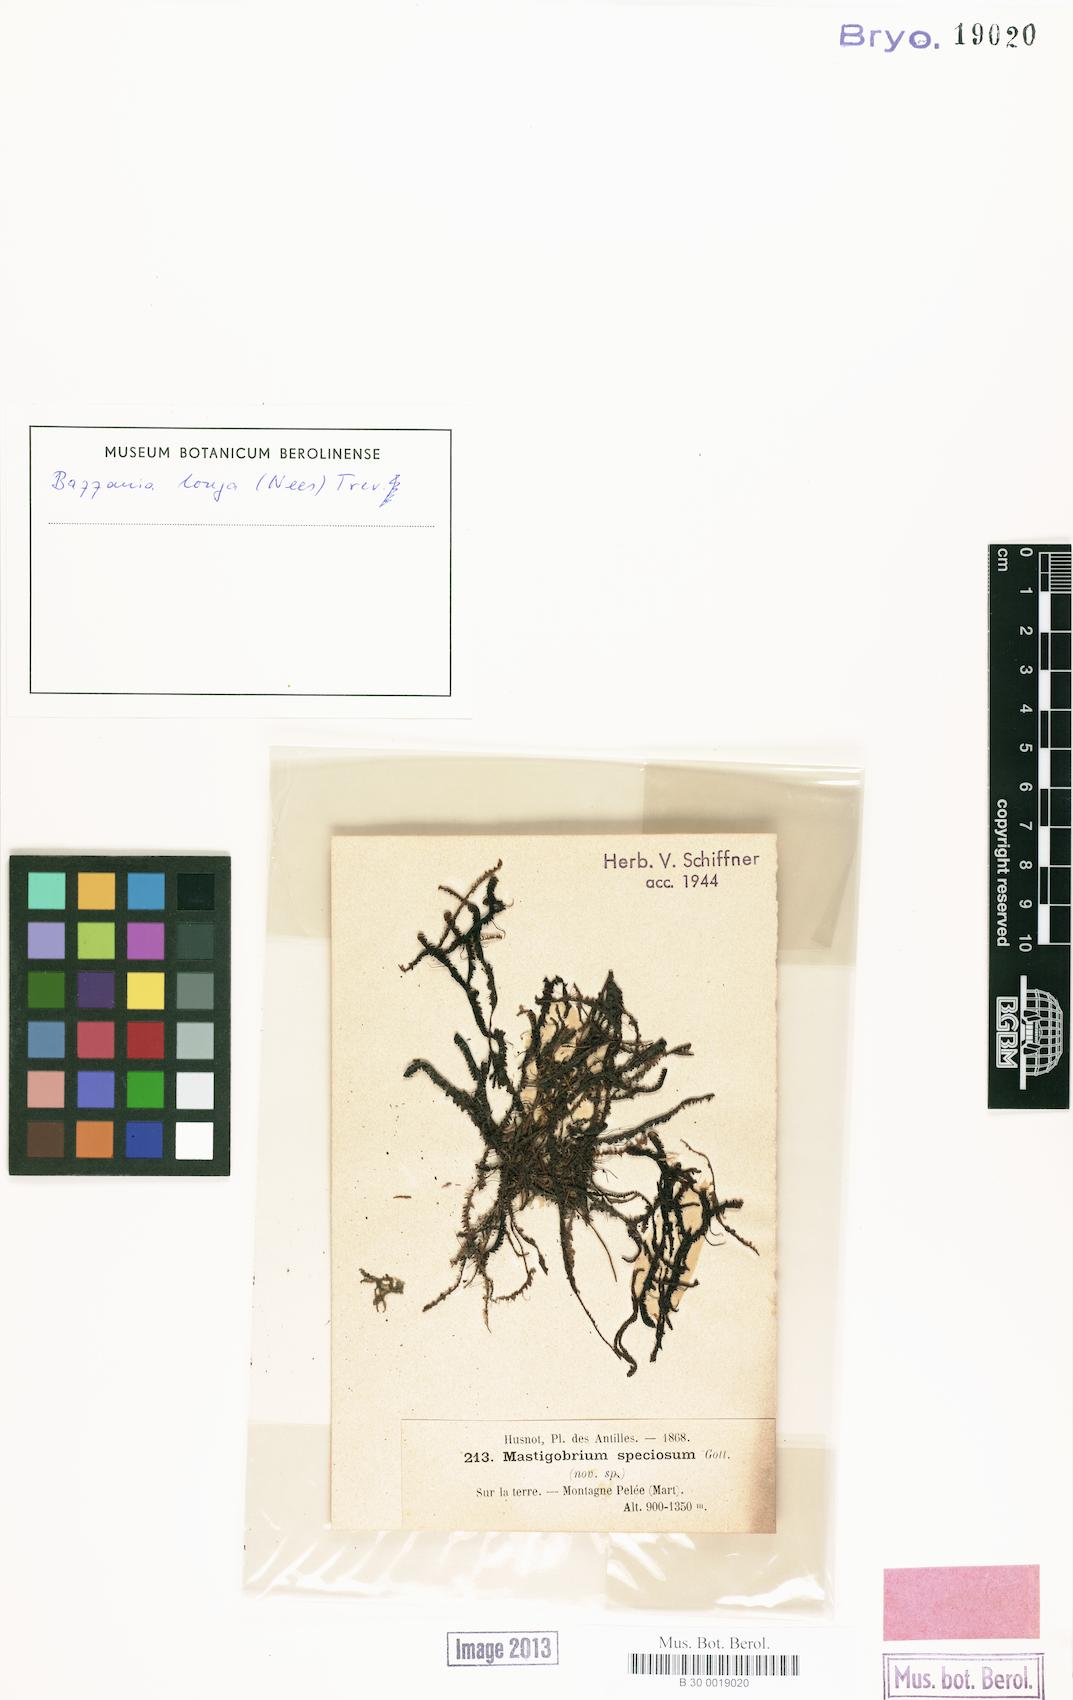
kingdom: Plantae
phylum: Marchantiophyta
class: Jungermanniopsida
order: Jungermanniales
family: Lepidoziaceae
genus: Bazzania
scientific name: Bazzania praerupta
